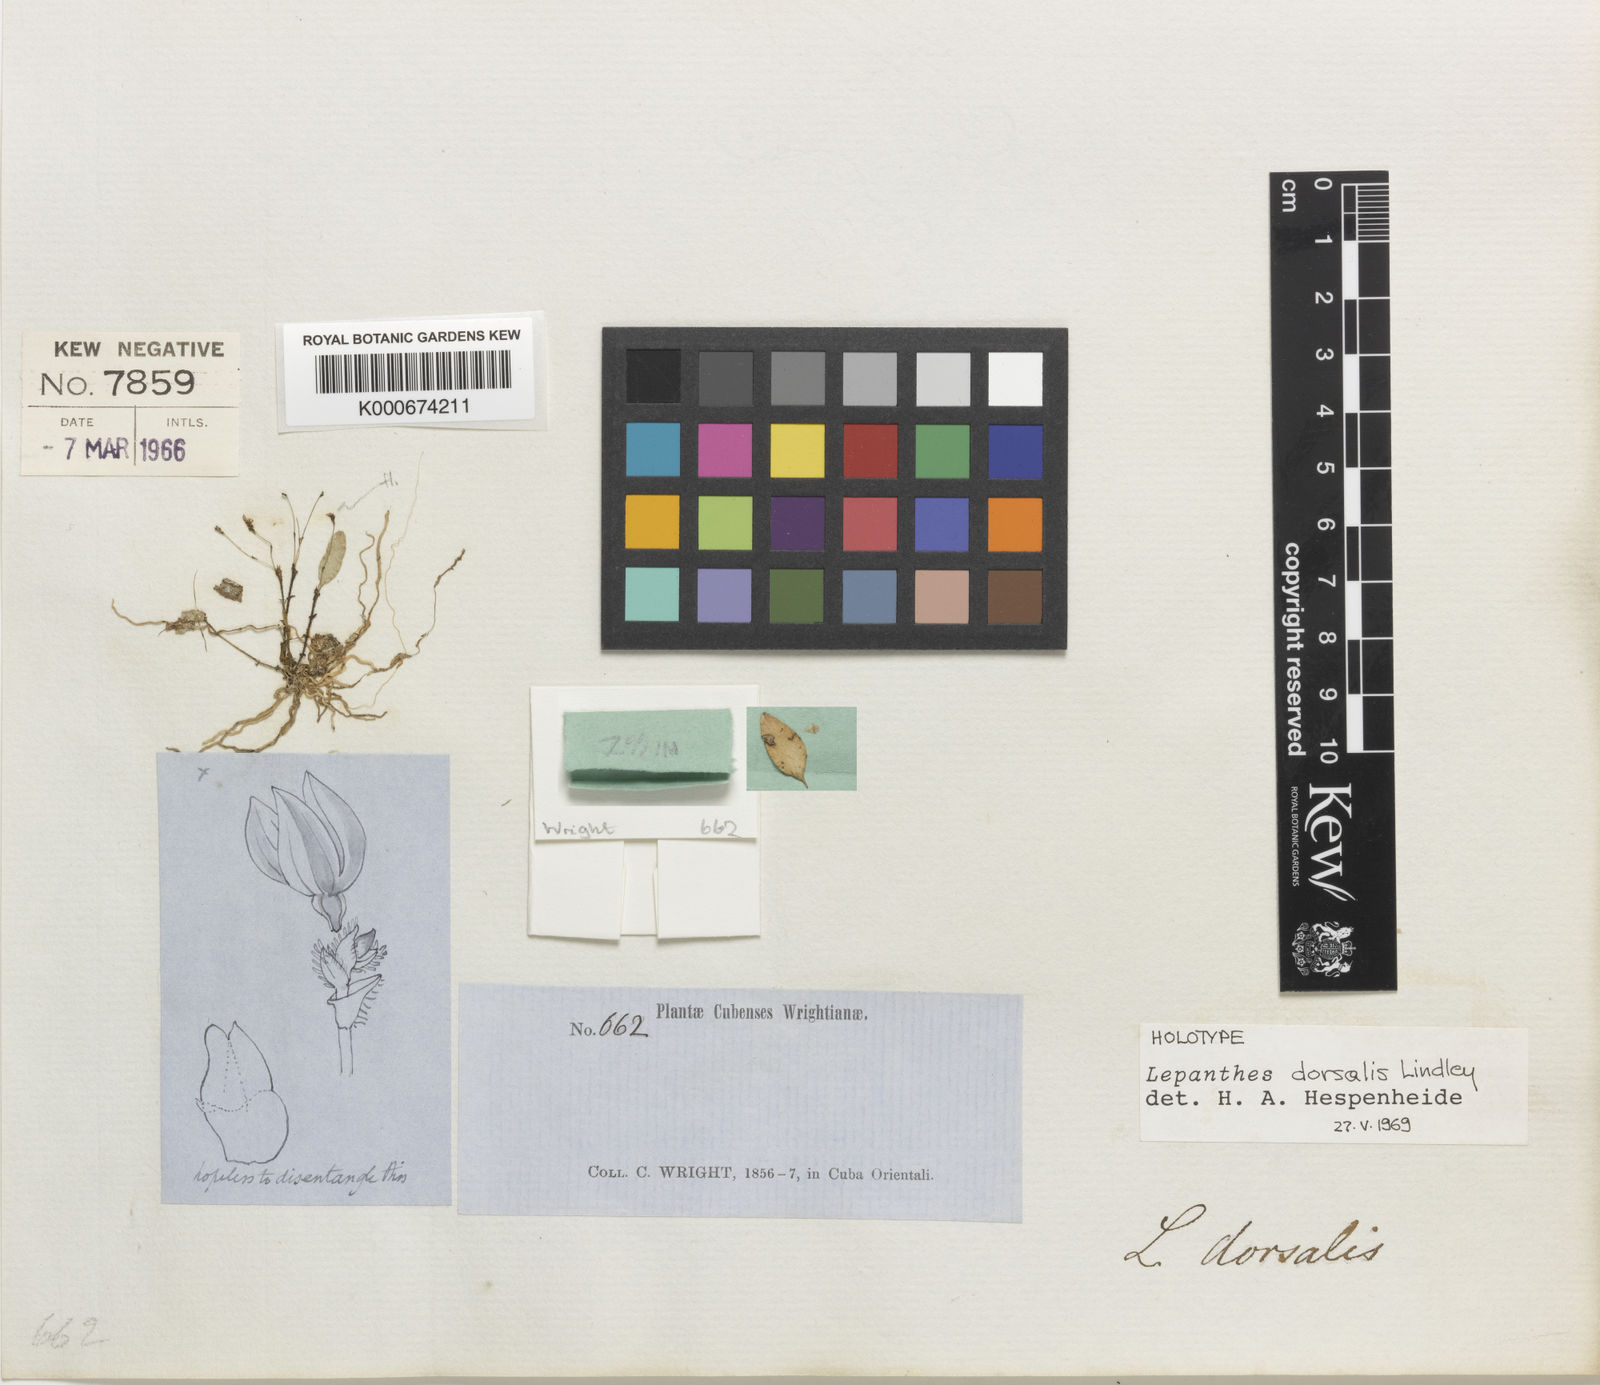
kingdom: Plantae
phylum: Tracheophyta
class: Liliopsida
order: Asparagales
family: Orchidaceae
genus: Lepanthes
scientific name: Lepanthes dorsalis
